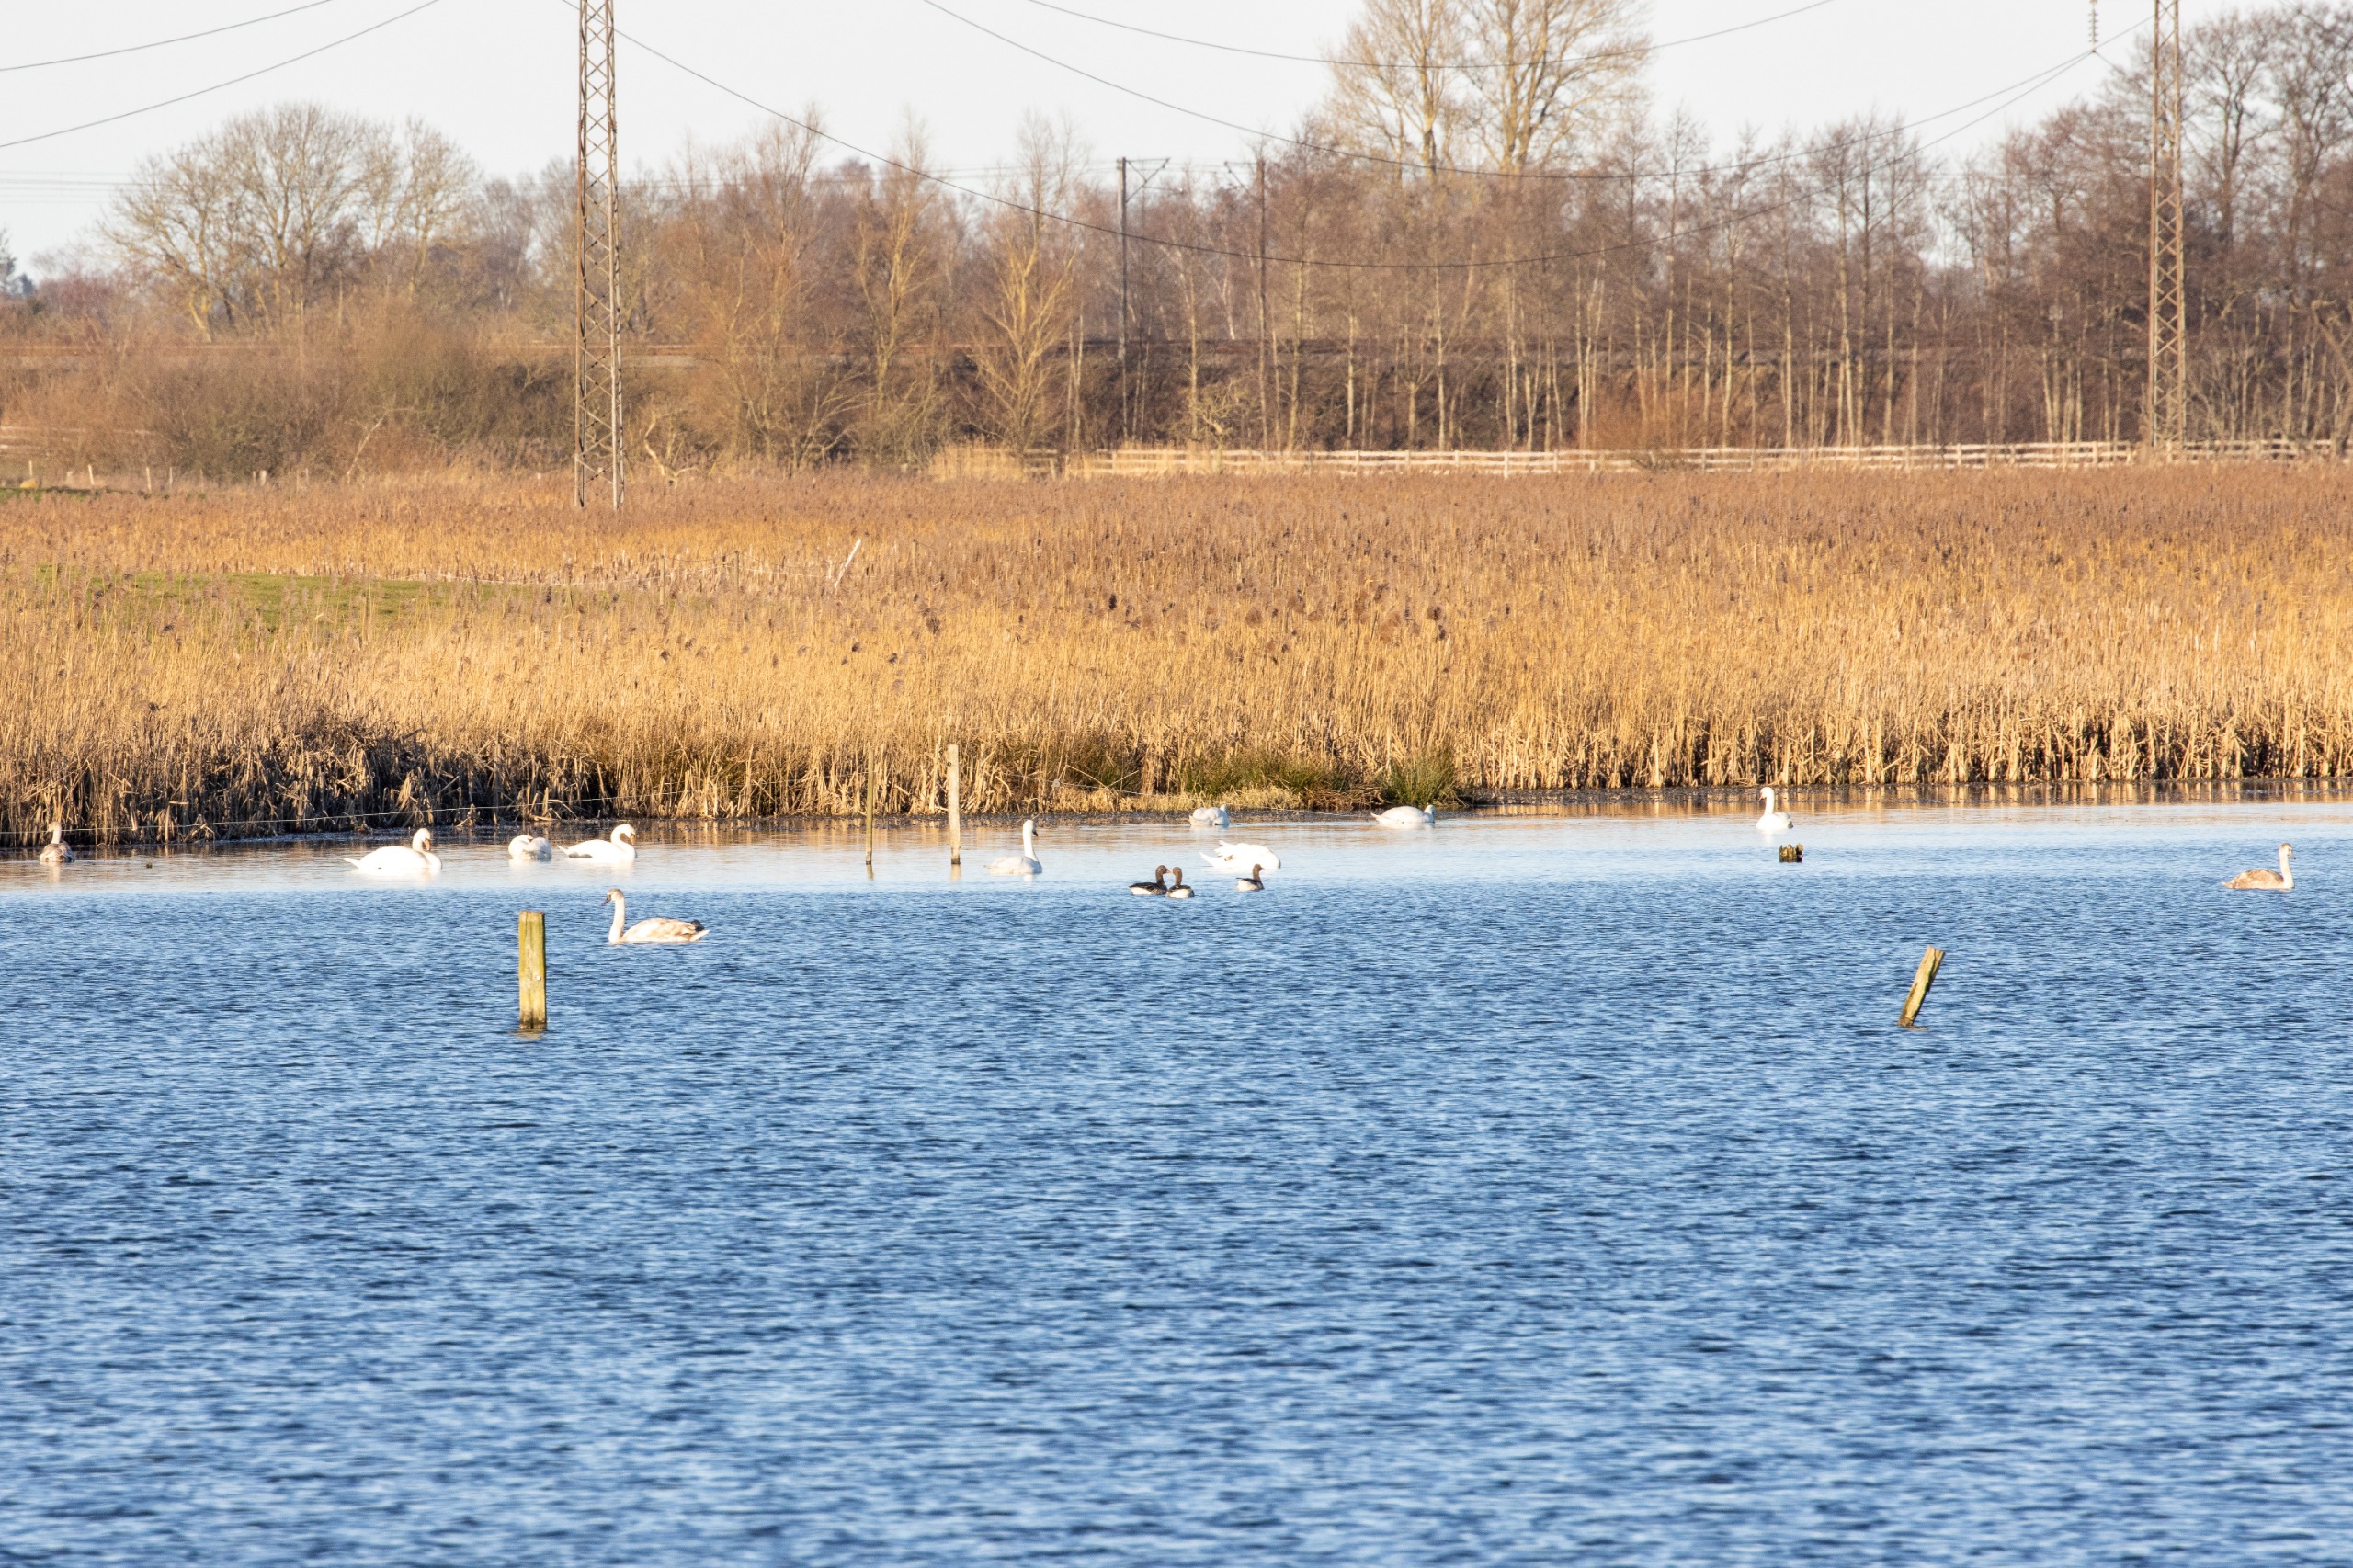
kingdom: Animalia
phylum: Chordata
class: Aves
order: Anseriformes
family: Anatidae
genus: Cygnus
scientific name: Cygnus olor
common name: Knopsvane
